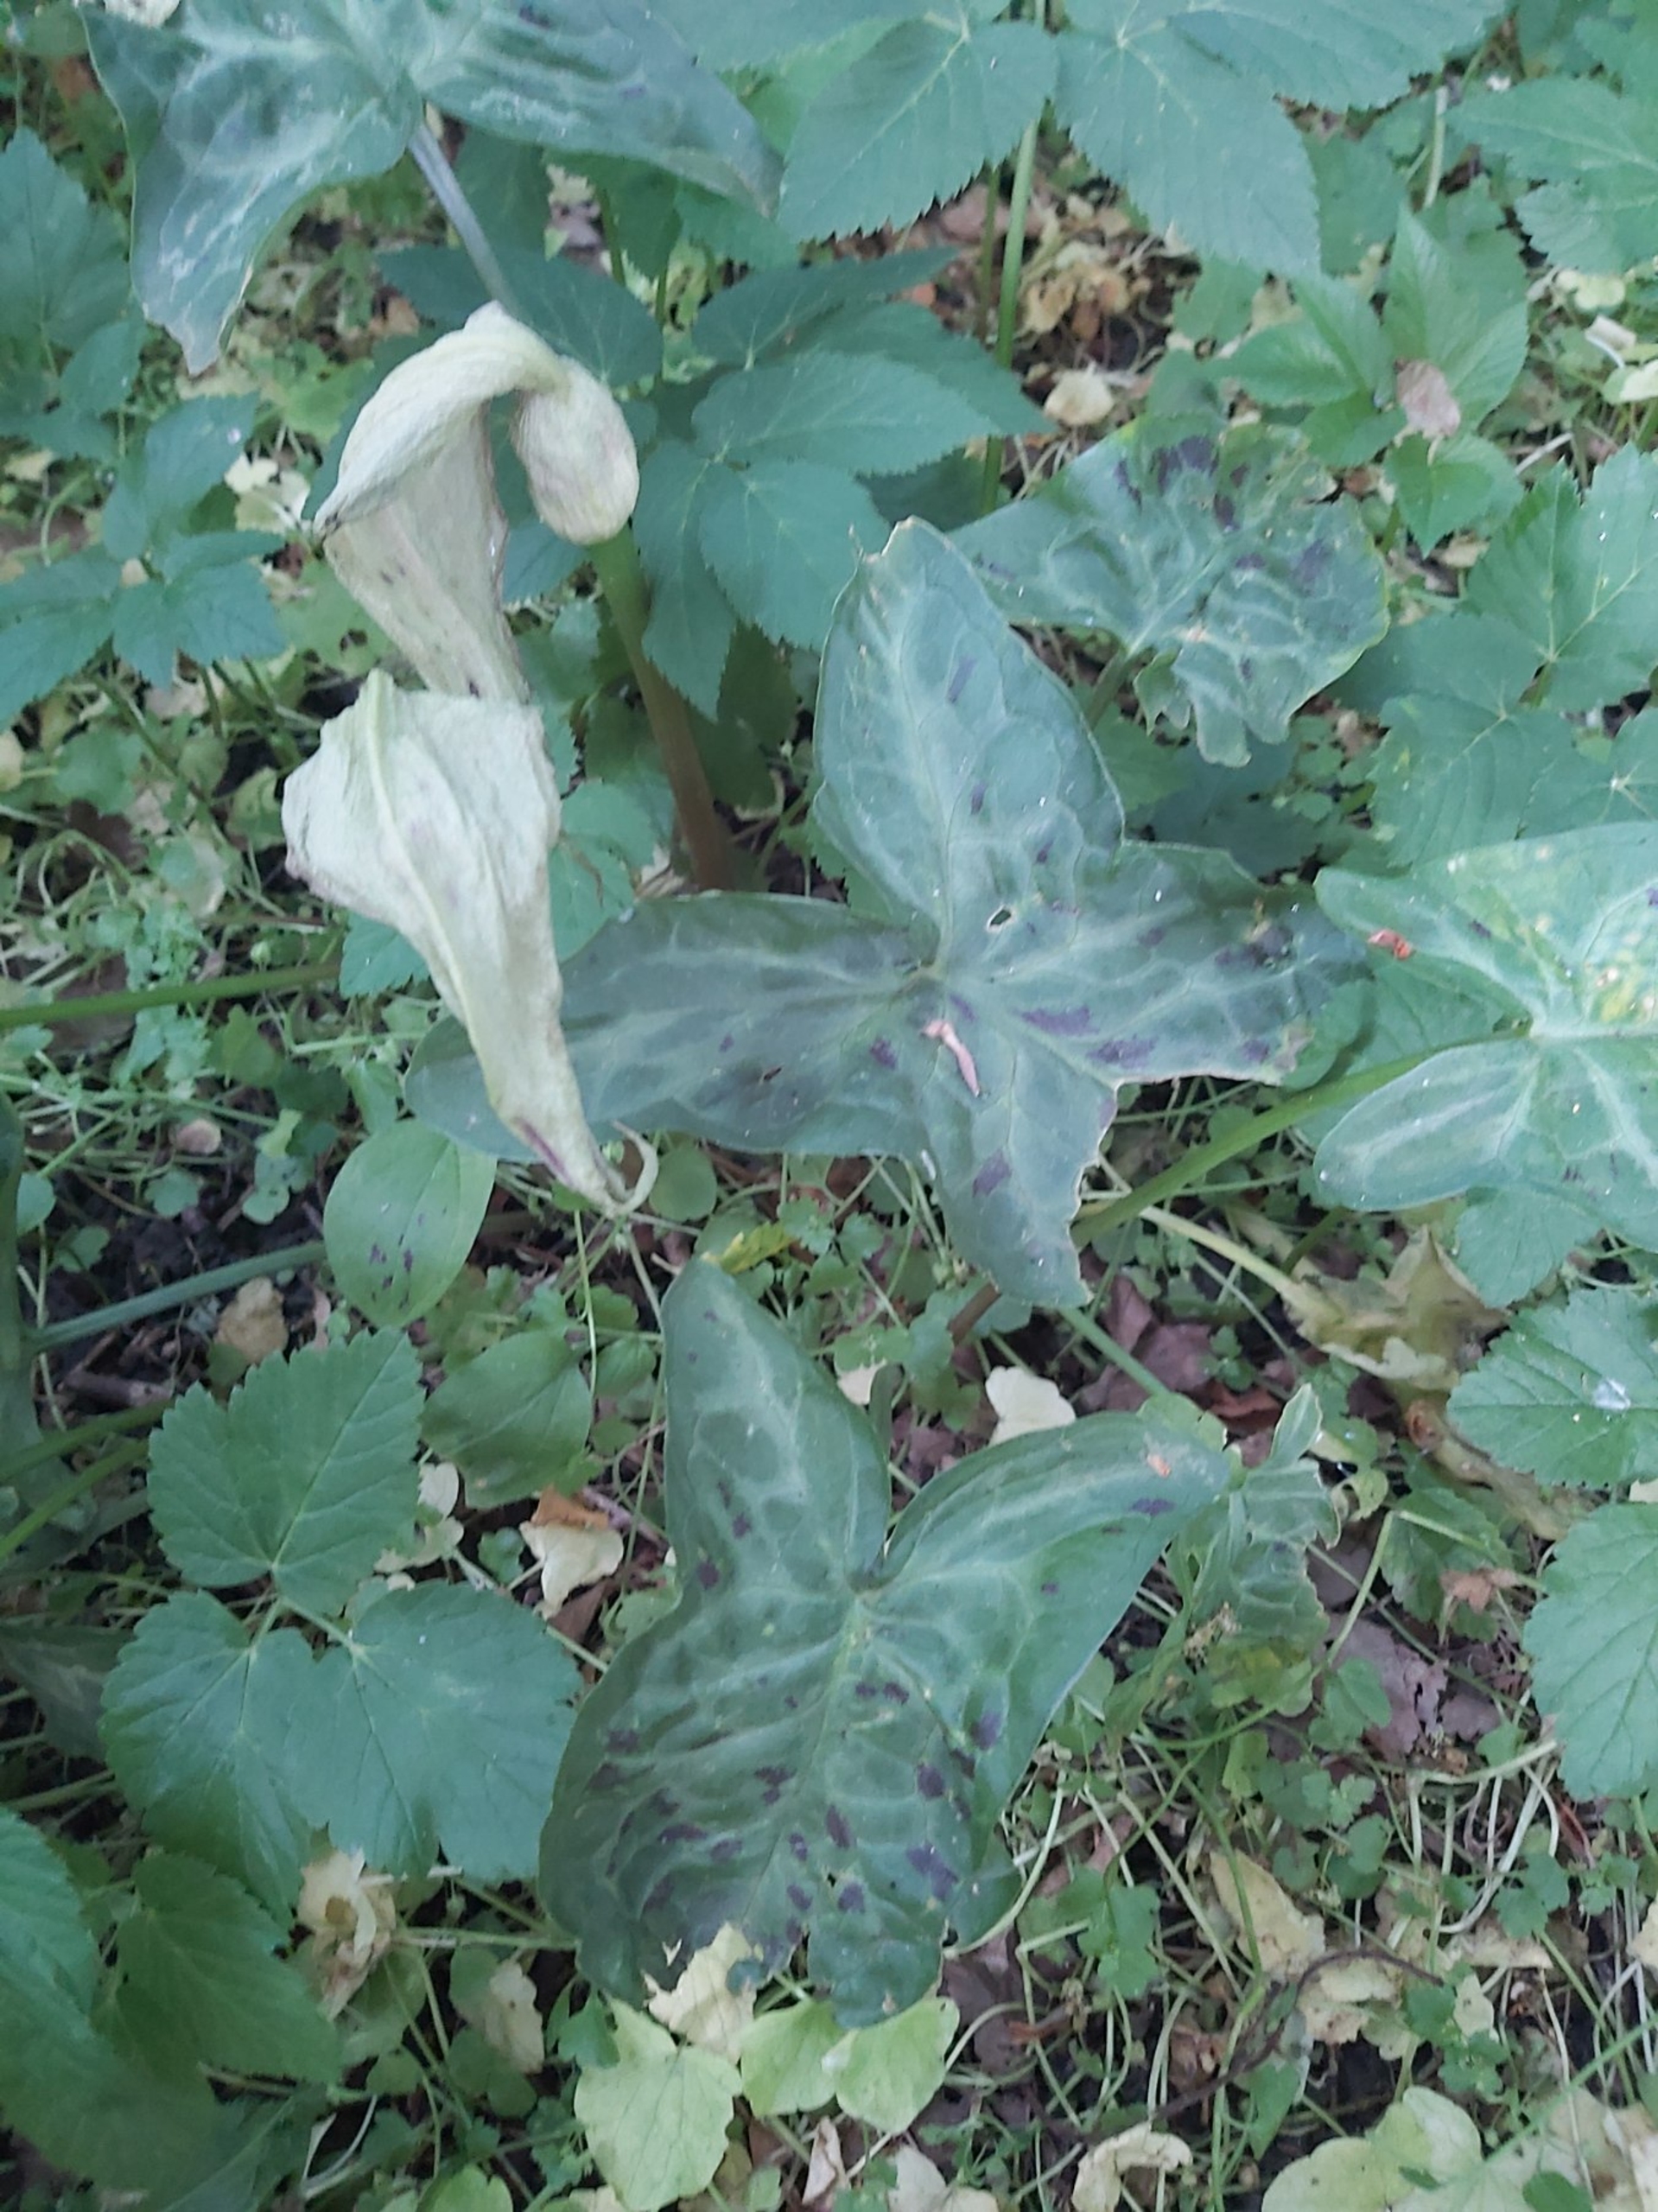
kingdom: Plantae
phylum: Tracheophyta
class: Liliopsida
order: Alismatales
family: Araceae
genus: Arum
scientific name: Arum maculatum
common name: Plettet arum
